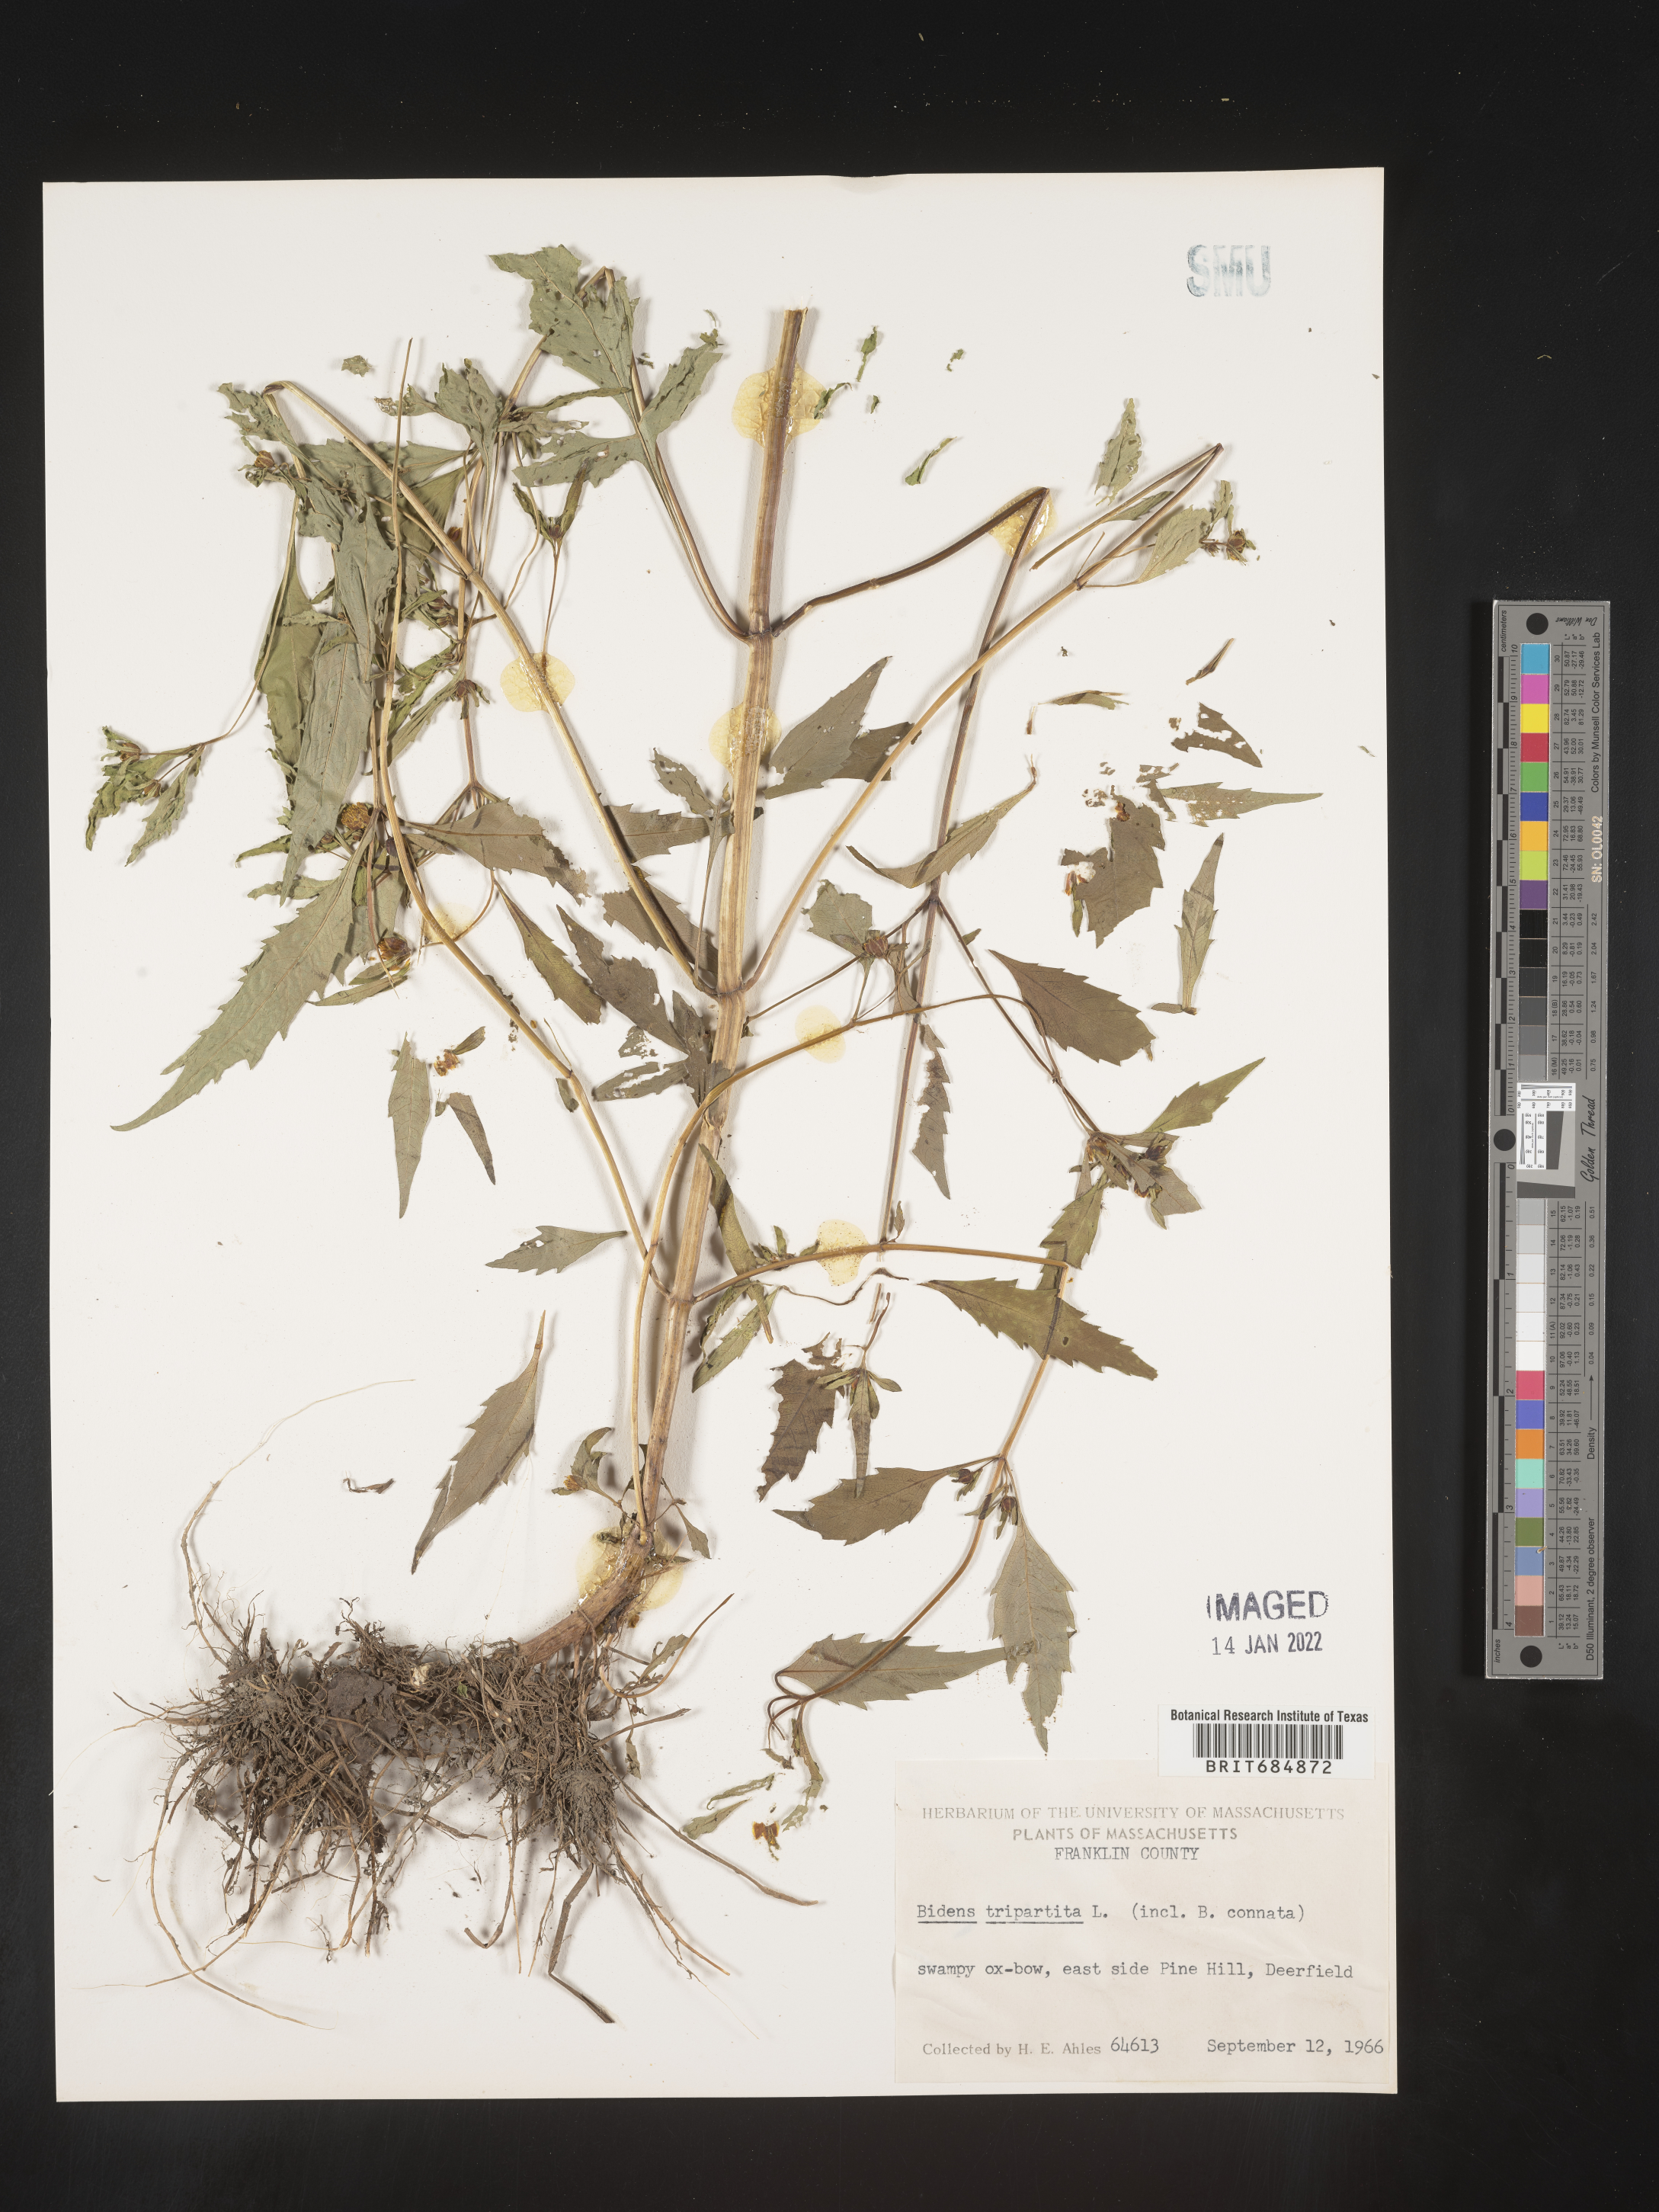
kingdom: Plantae
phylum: Tracheophyta
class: Magnoliopsida
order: Asterales
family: Asteraceae
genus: Bidens
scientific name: Bidens tripartita
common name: Trifid bur-marigold
